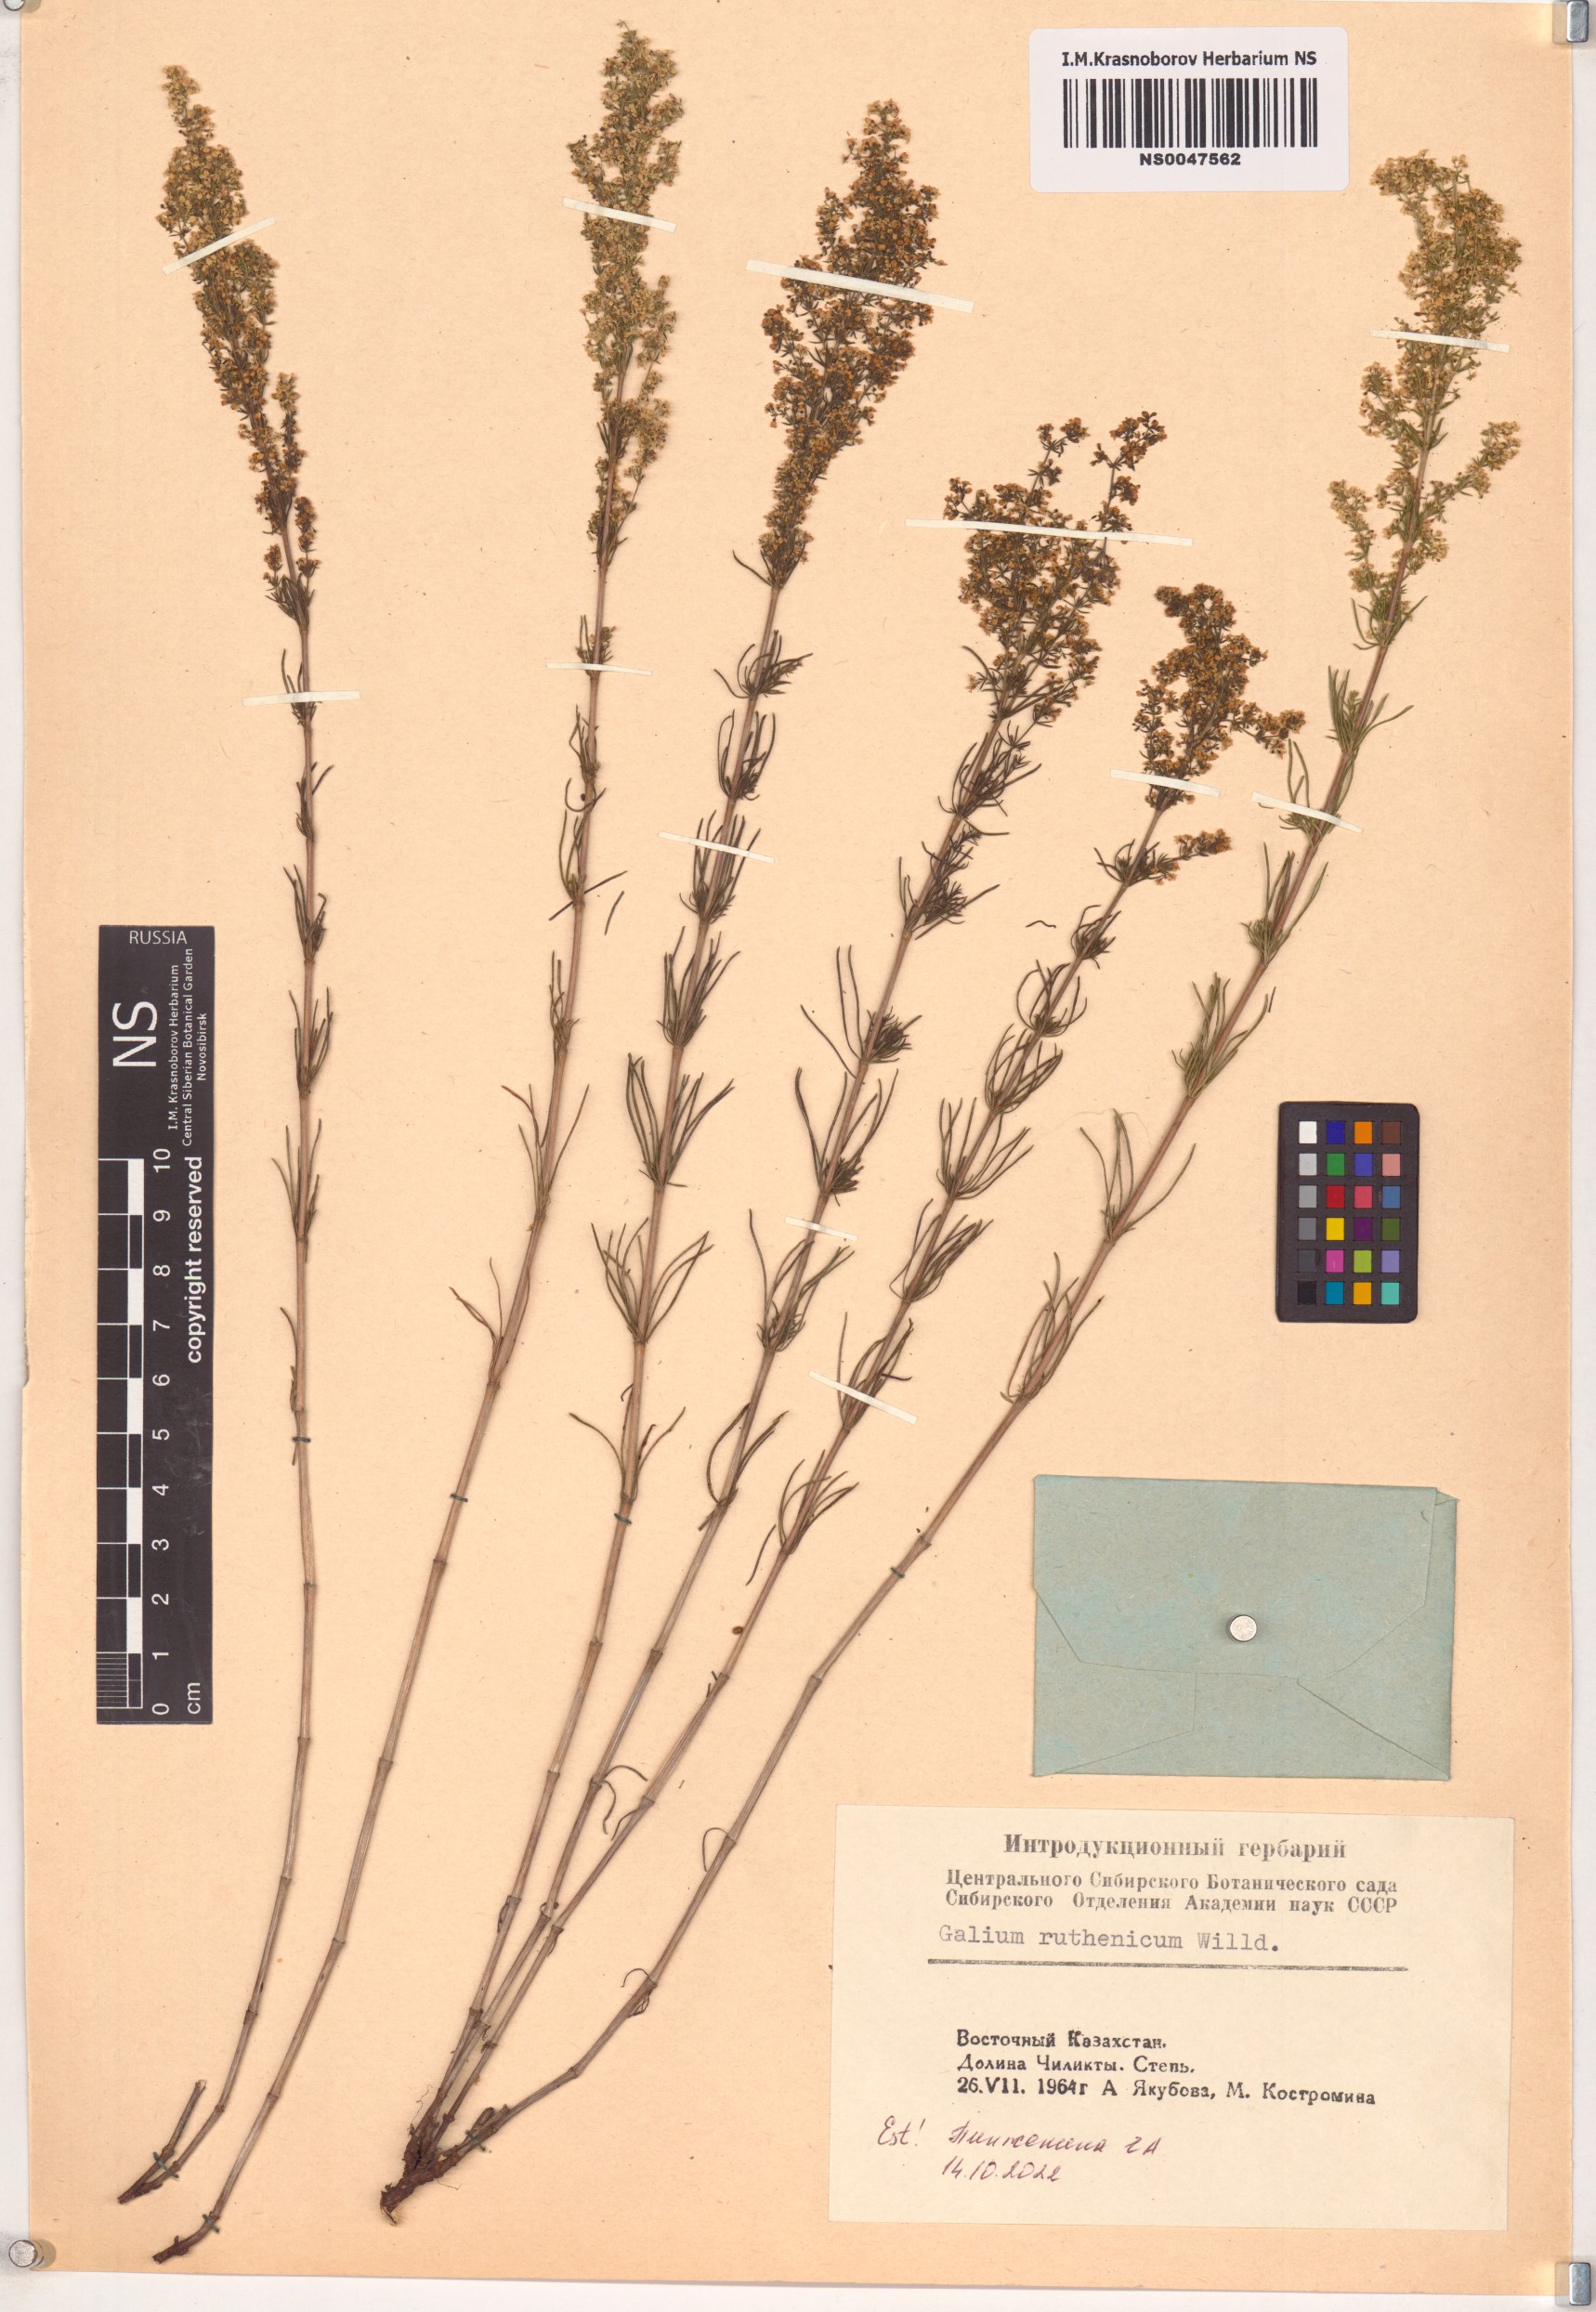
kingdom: Plantae
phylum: Tracheophyta
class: Magnoliopsida
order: Gentianales
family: Rubiaceae
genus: Galium
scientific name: Galium verum
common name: Lady's bedstraw
